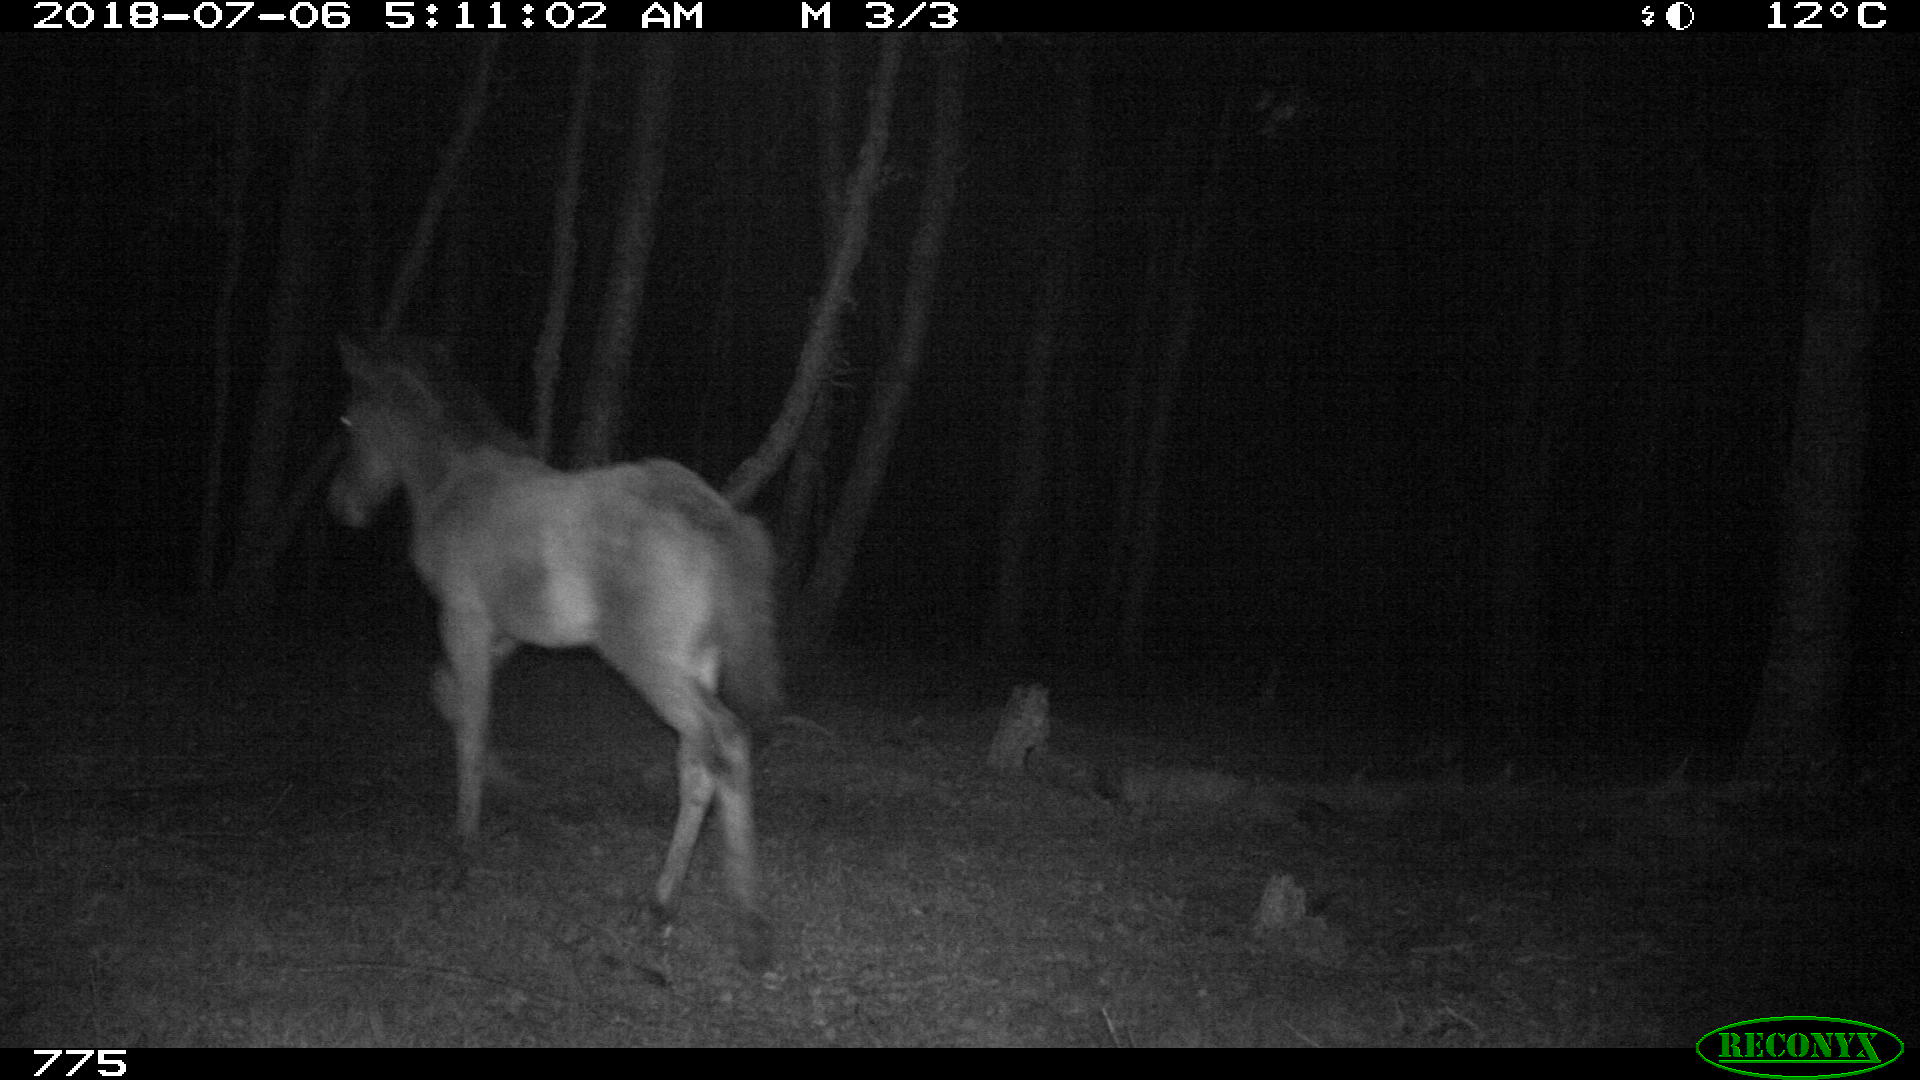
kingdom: Animalia
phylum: Chordata
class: Mammalia
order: Perissodactyla
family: Equidae
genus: Equus
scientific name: Equus caballus
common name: Horse
